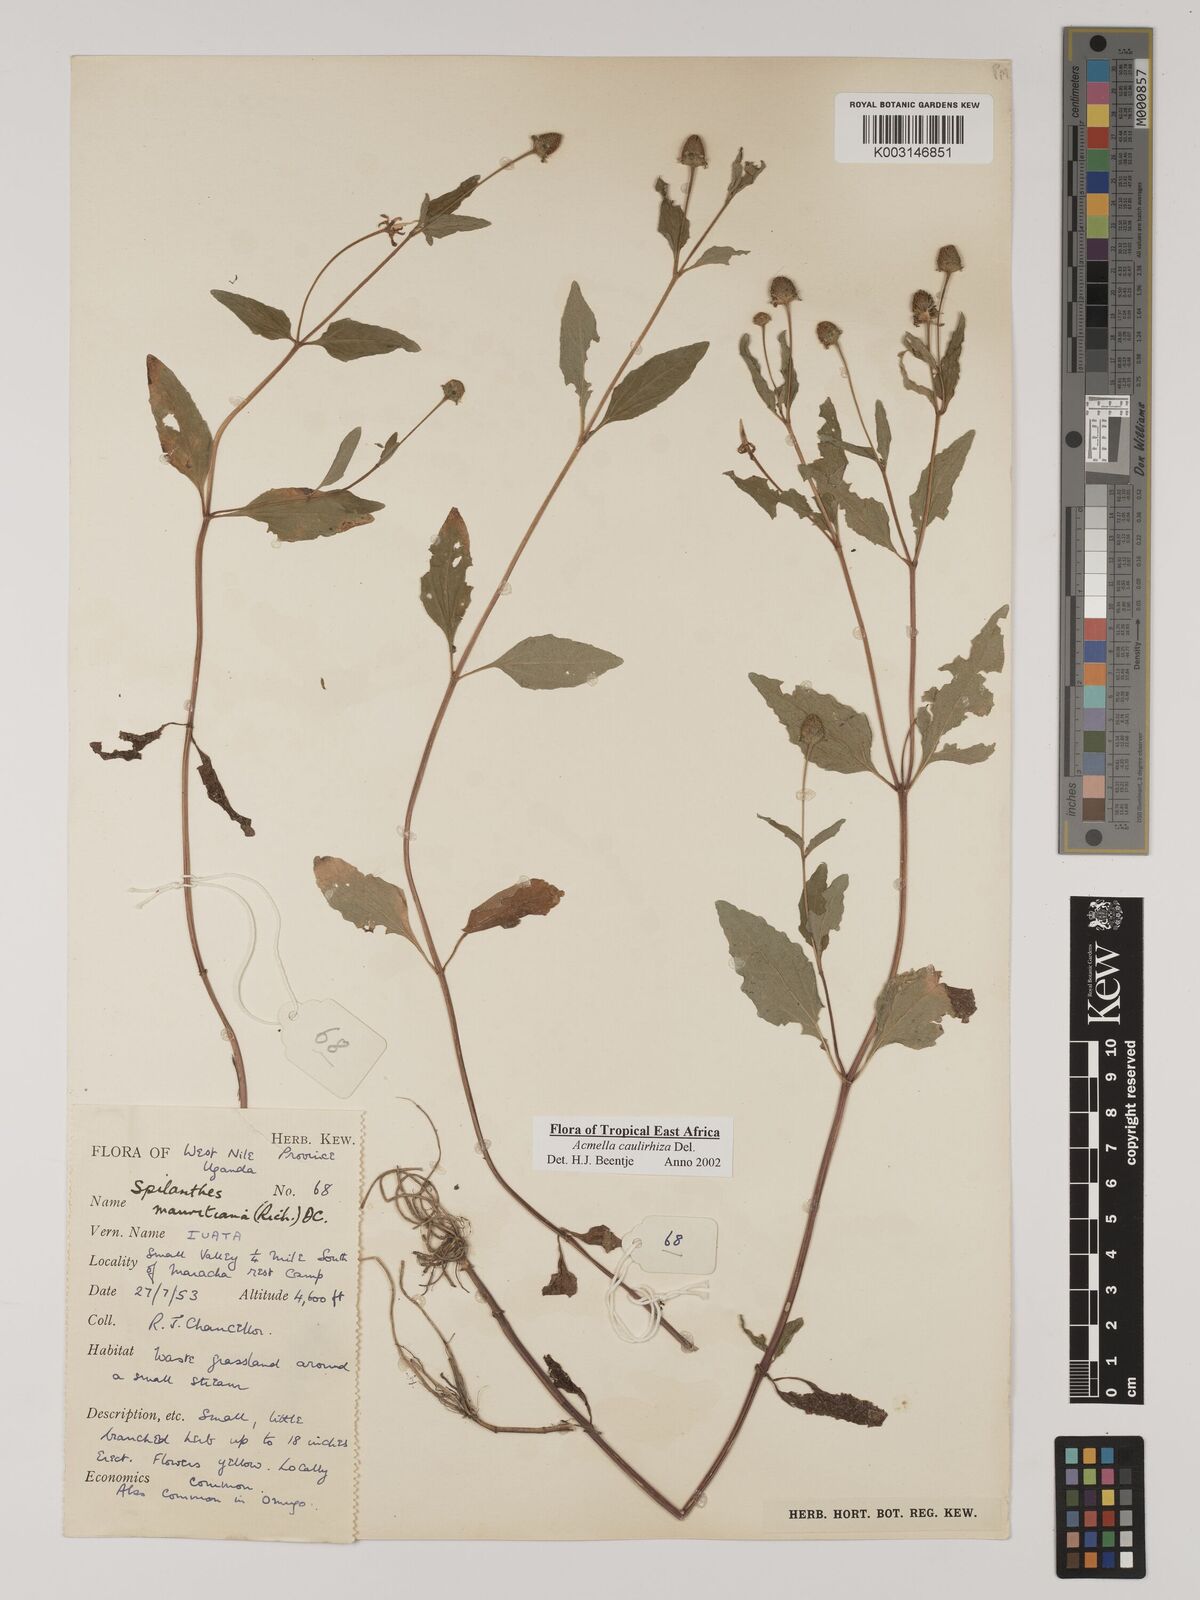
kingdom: Plantae
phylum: Tracheophyta
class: Magnoliopsida
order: Asterales
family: Asteraceae
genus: Acmella
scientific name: Acmella caulirhiza
